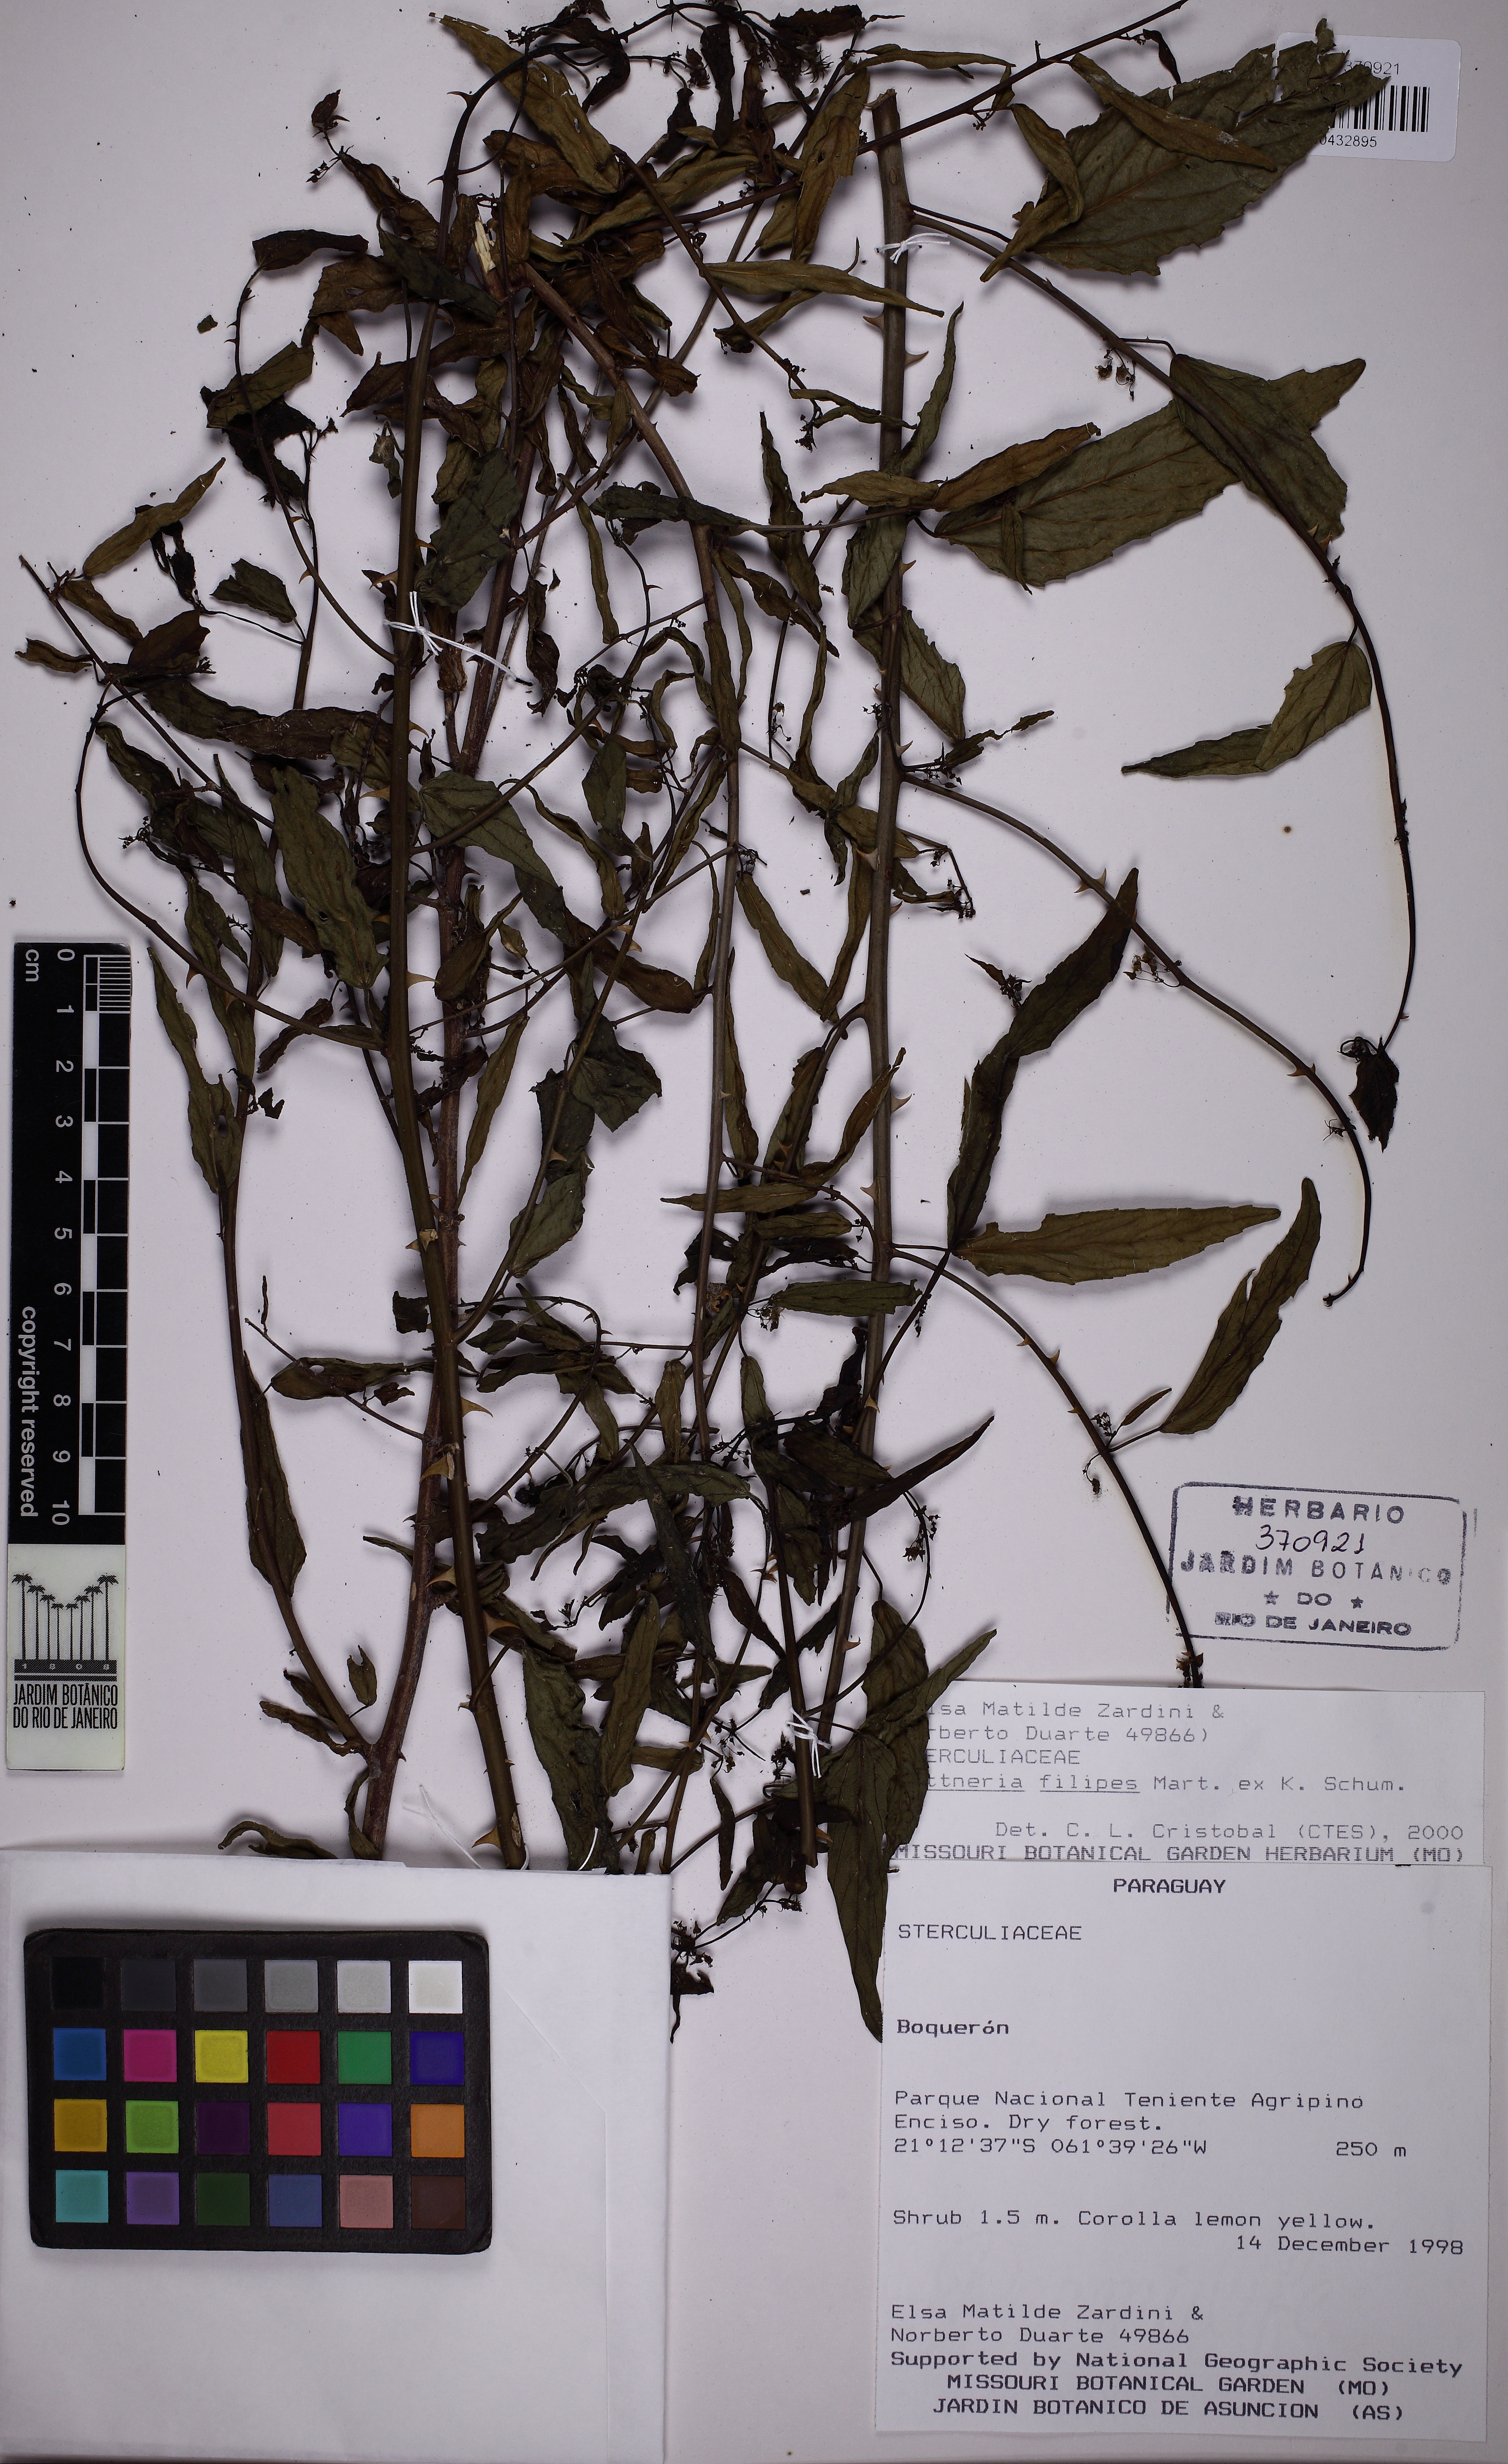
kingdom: Plantae
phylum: Tracheophyta
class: Magnoliopsida
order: Malvales
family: Malvaceae
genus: Byttneria
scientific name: Byttneria filipes
